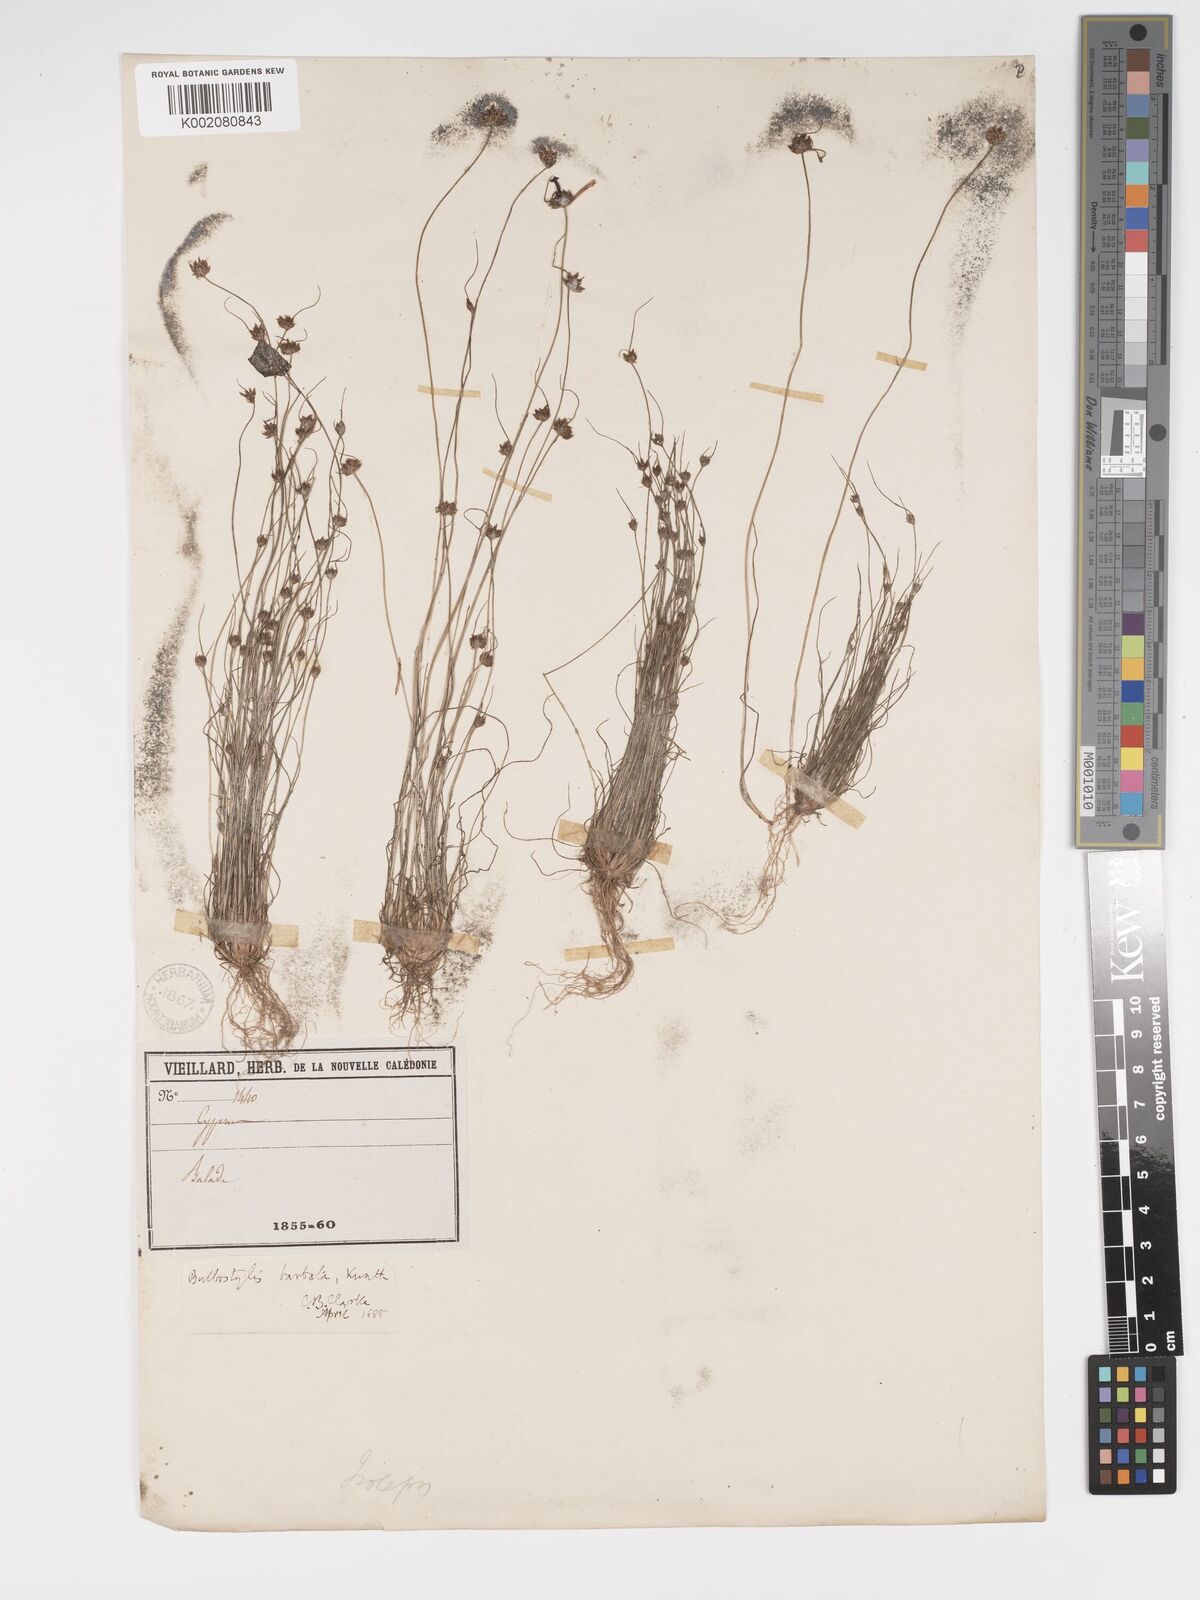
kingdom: Plantae
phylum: Tracheophyta
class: Liliopsida
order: Poales
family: Cyperaceae
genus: Bulbostylis
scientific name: Bulbostylis barbata
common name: Watergrass
